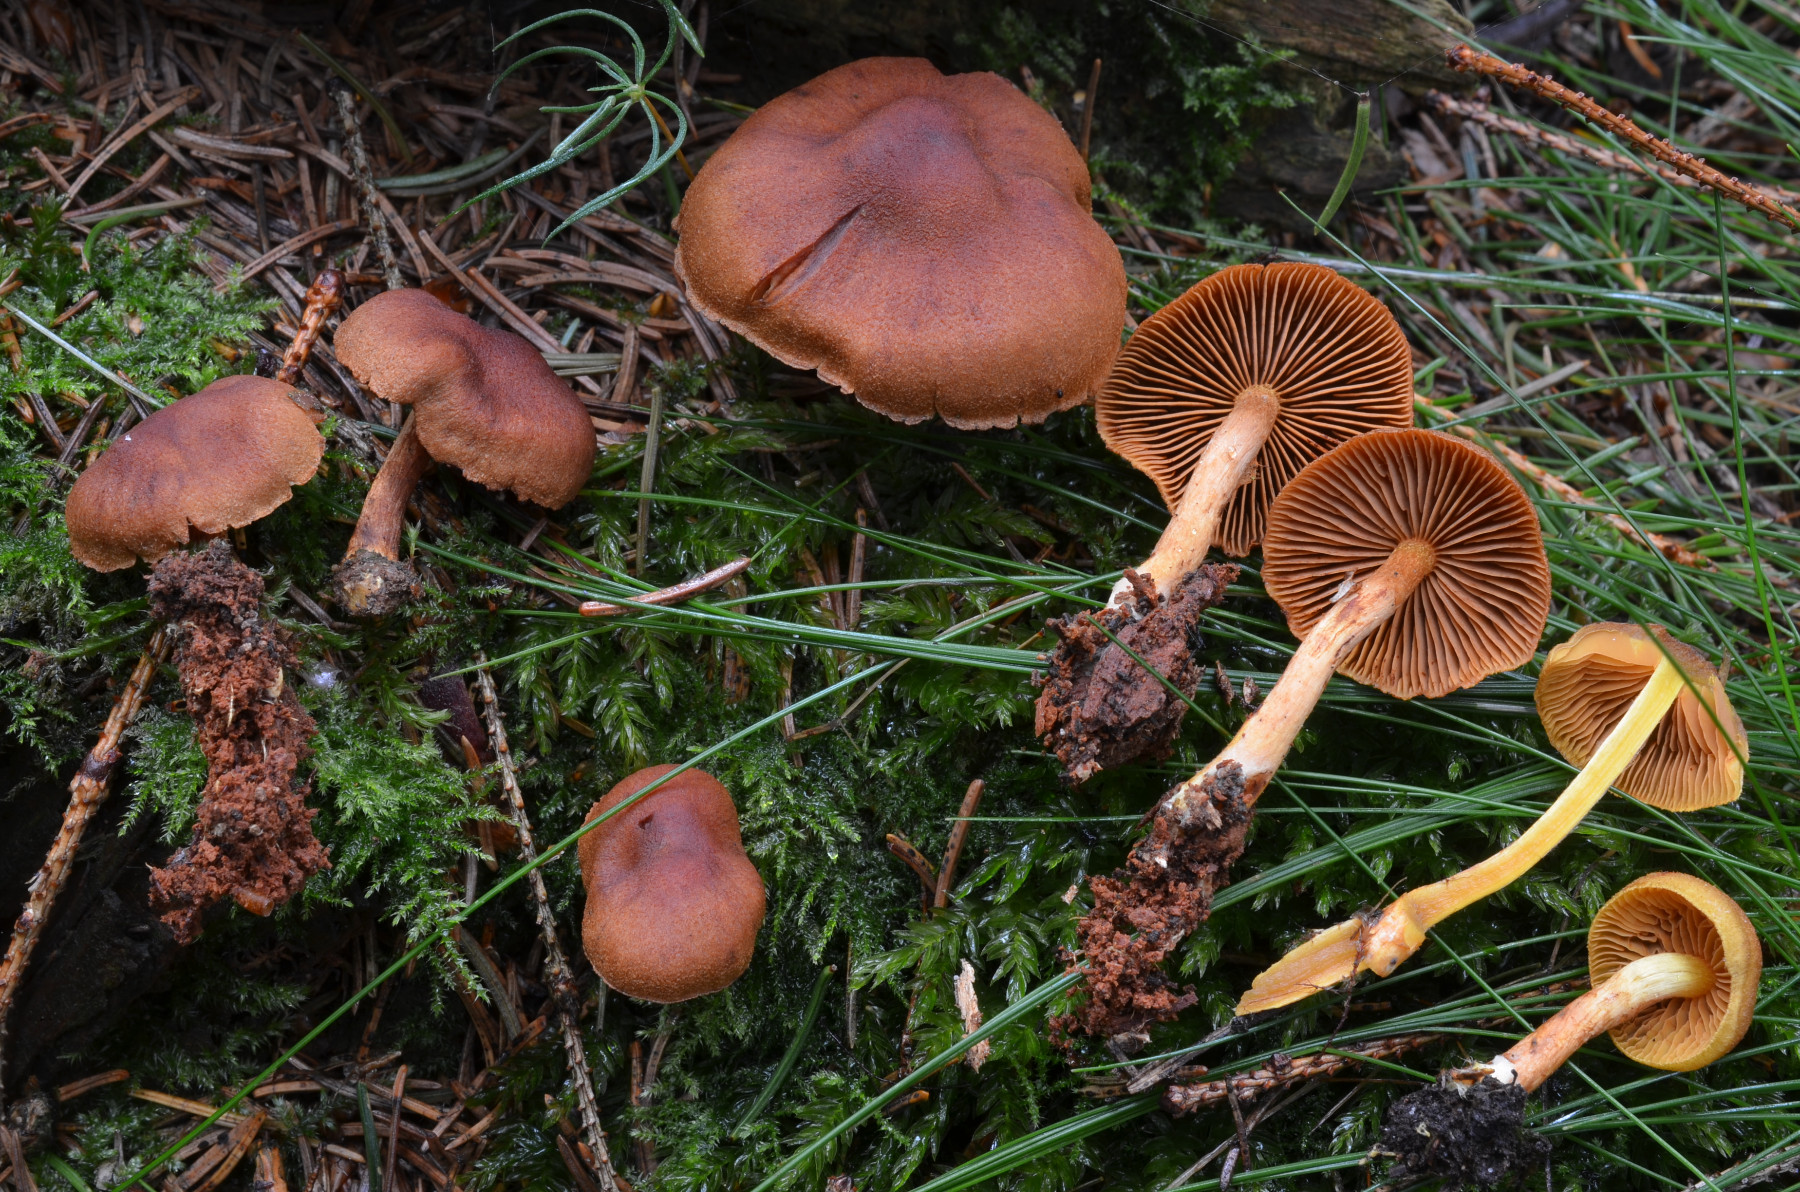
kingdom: Fungi
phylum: Basidiomycota
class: Agaricomycetes
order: Agaricales
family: Cortinariaceae
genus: Cortinarius
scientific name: Cortinarius lignicola
